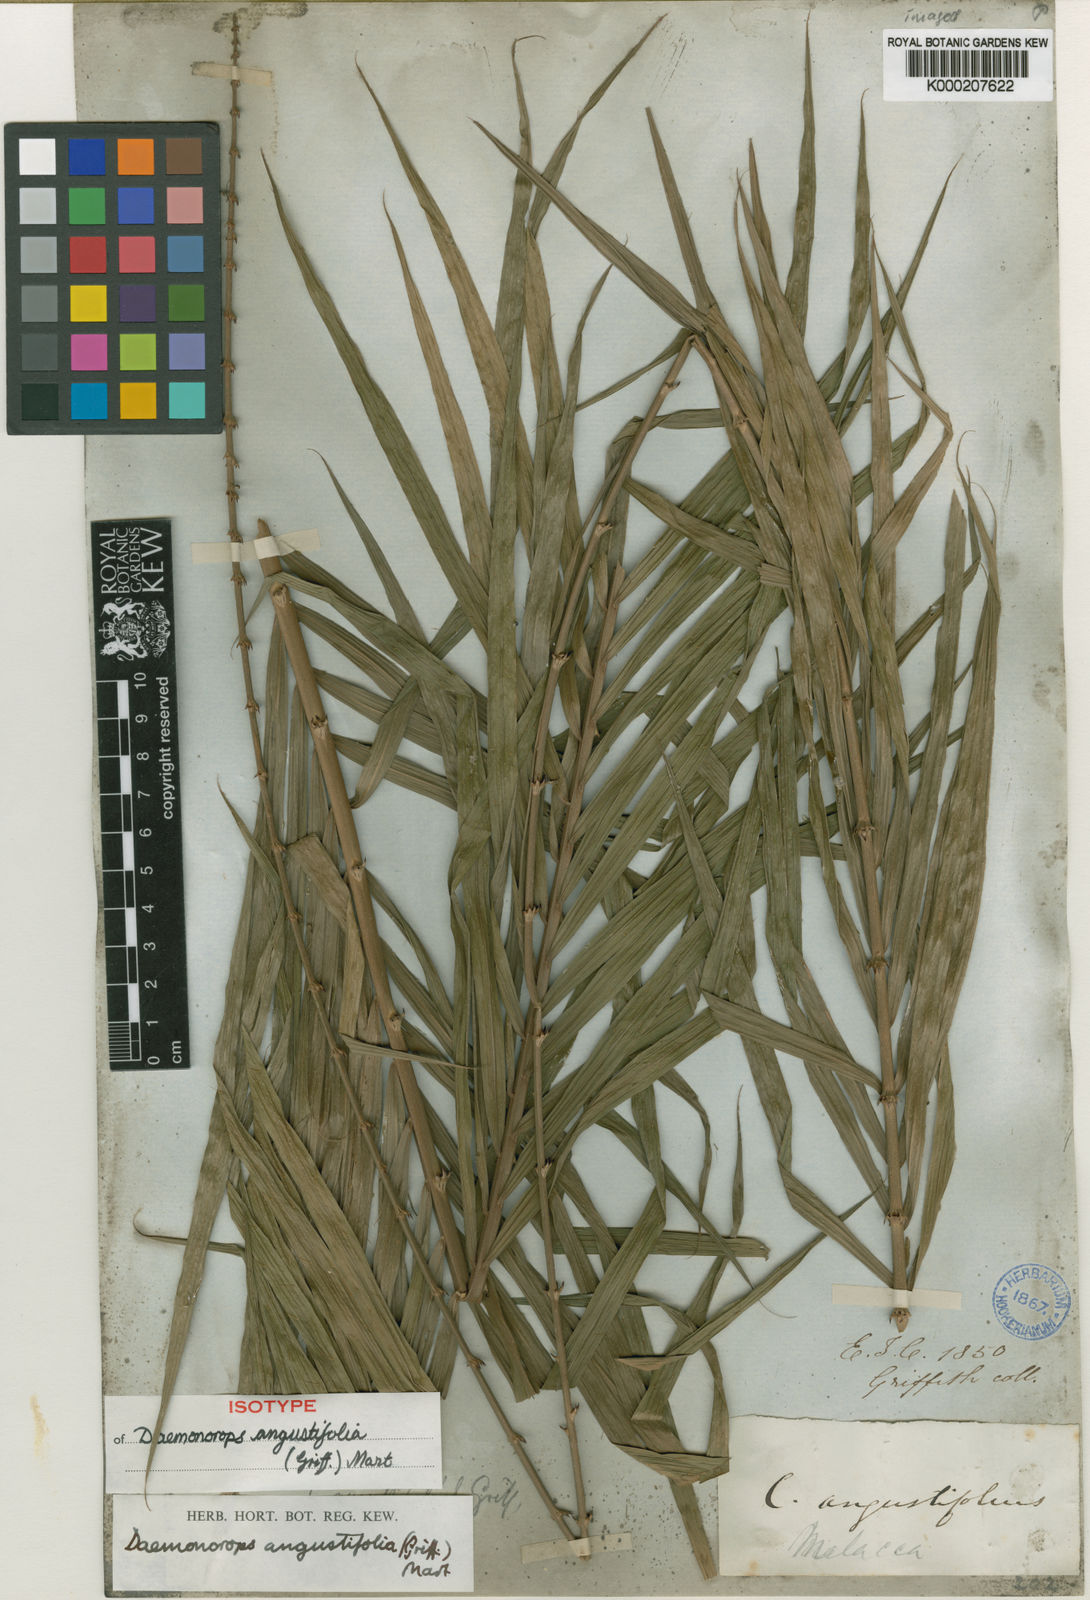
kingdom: Plantae
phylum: Tracheophyta
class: Liliopsida
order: Arecales
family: Arecaceae
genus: Calamus
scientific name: Calamus melanochaetes
